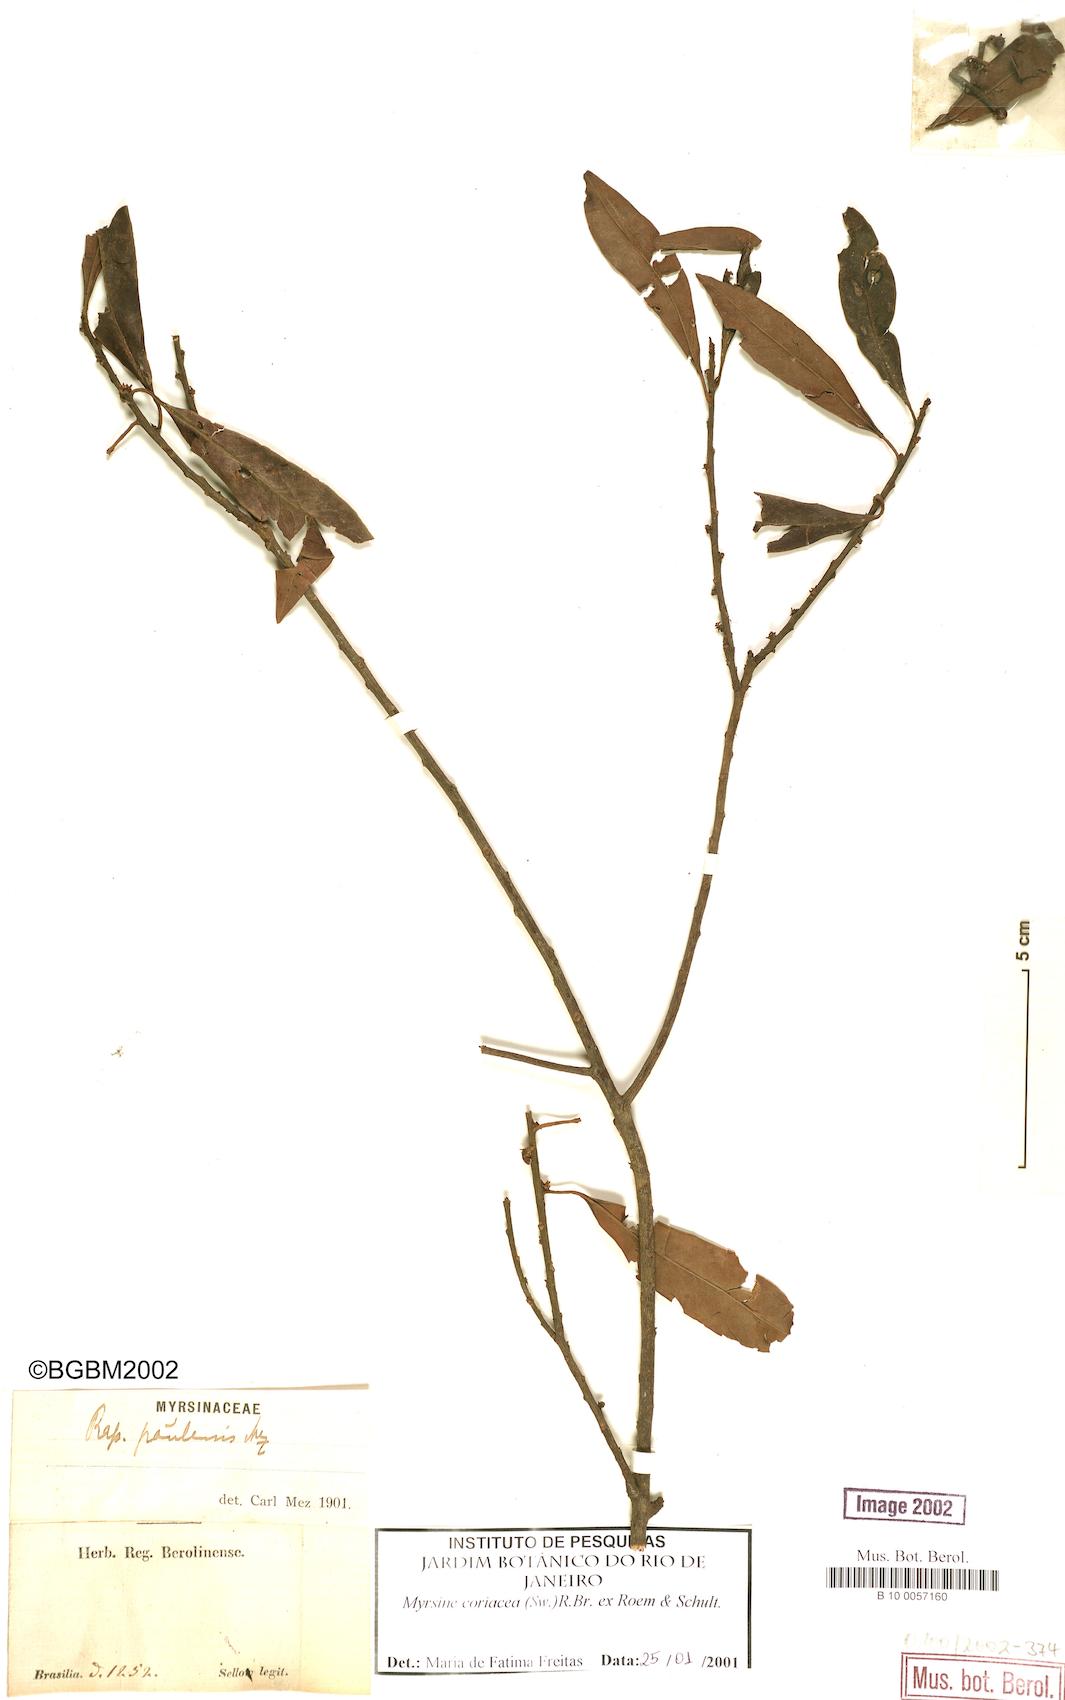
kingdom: Plantae
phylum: Tracheophyta
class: Magnoliopsida
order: Ericales
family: Primulaceae
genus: Myrsine
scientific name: Myrsine coriacea
